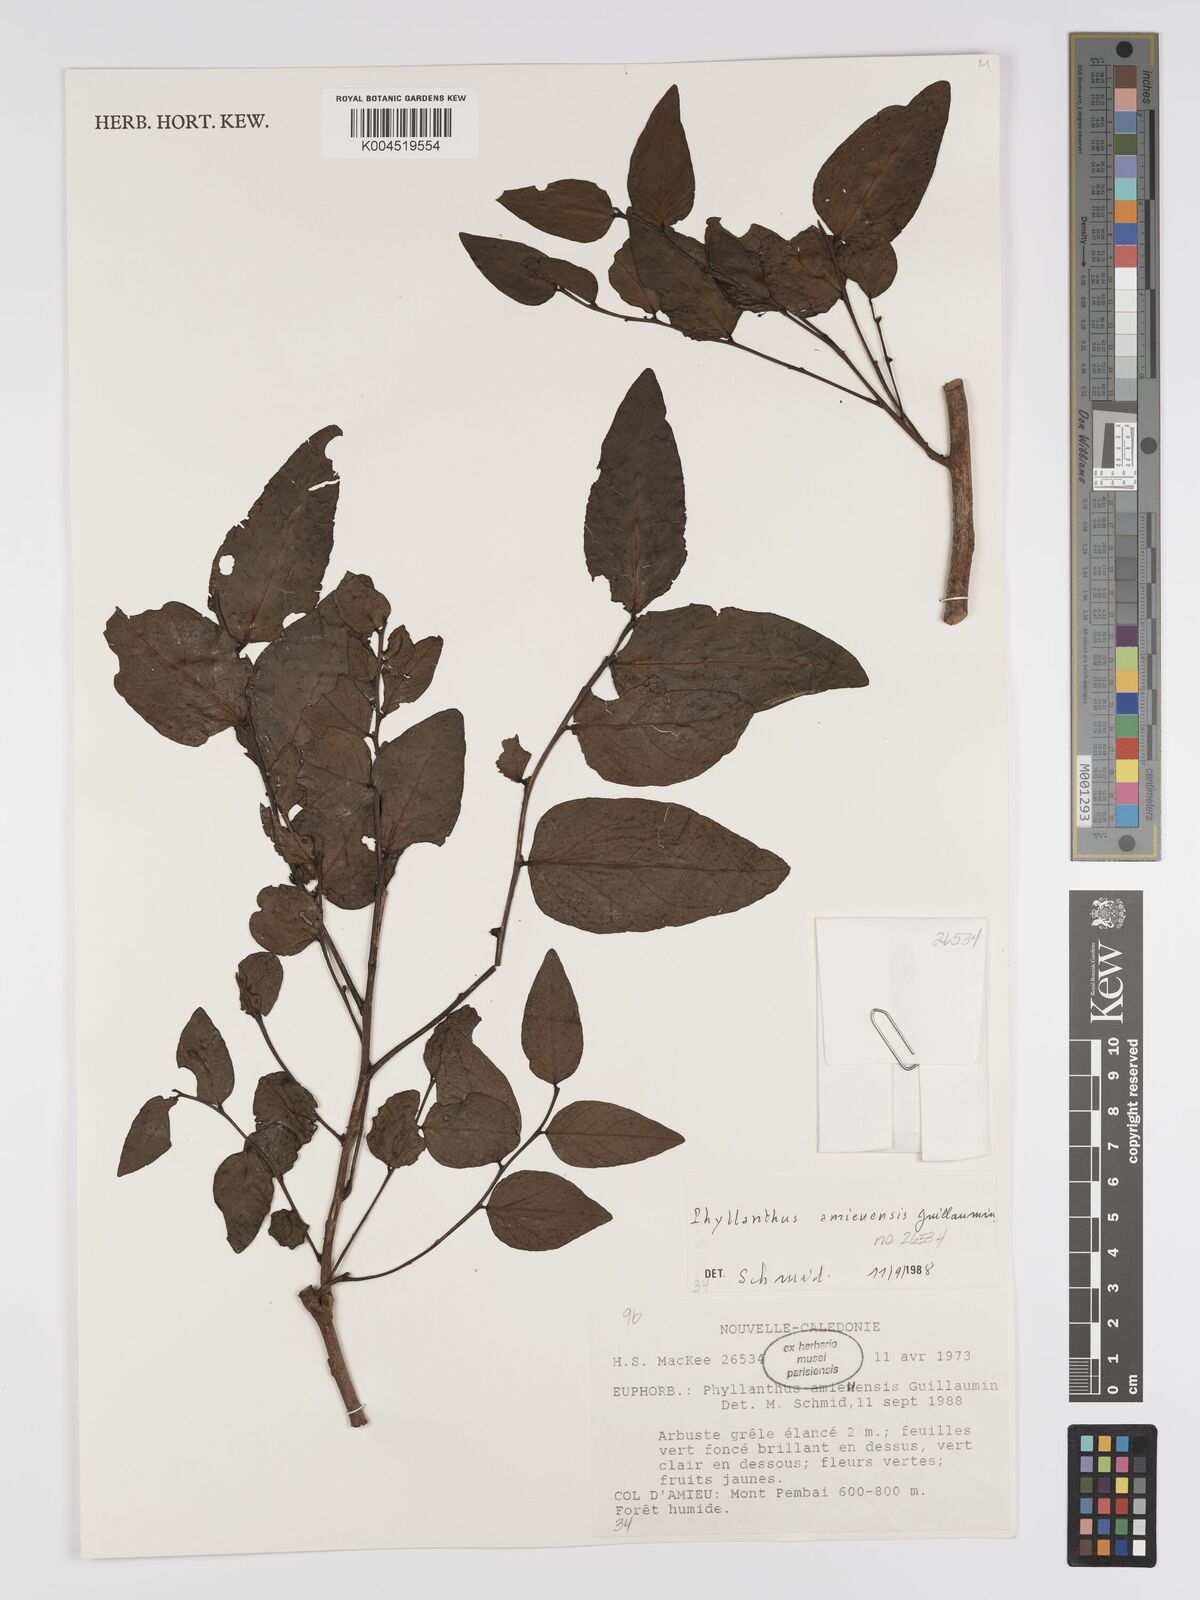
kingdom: Plantae
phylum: Tracheophyta
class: Magnoliopsida
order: Malpighiales
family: Phyllanthaceae
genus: Phyllanthus
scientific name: Phyllanthus amieuensis
